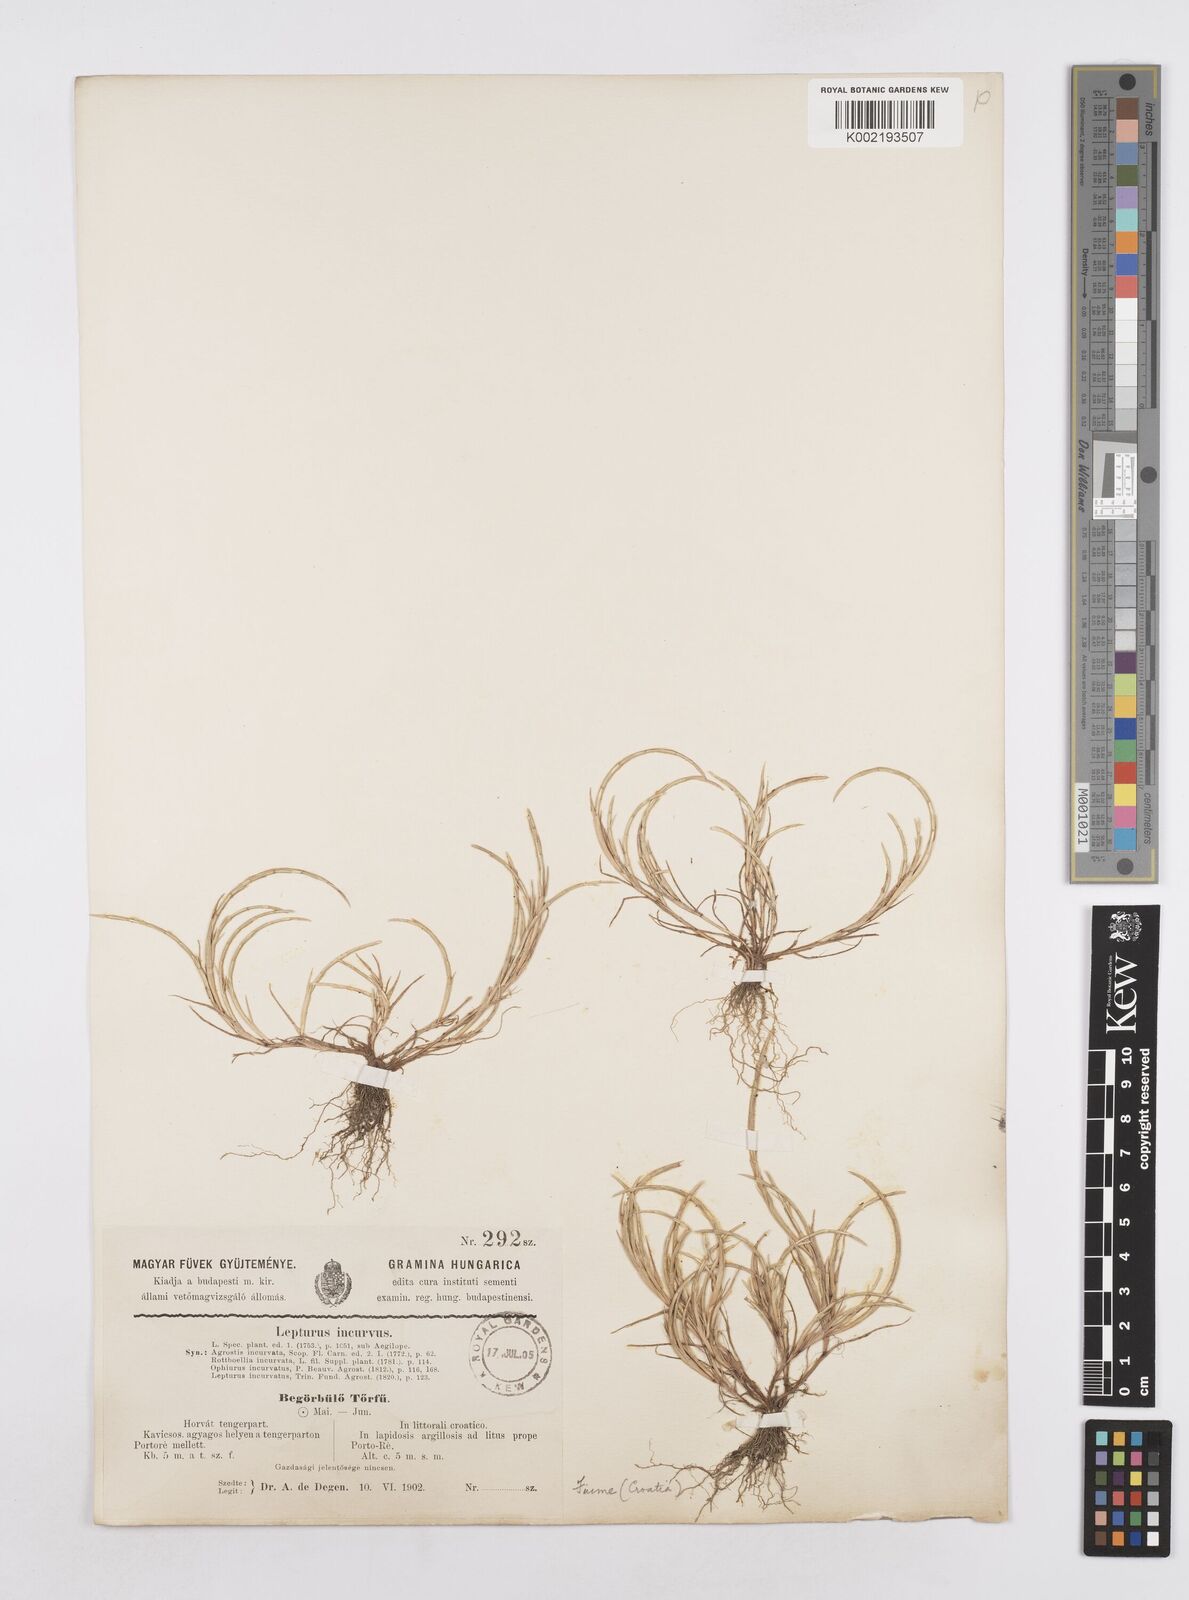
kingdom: Plantae
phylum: Tracheophyta
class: Liliopsida
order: Poales
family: Poaceae
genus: Parapholis
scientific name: Parapholis incurva
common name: Curved sicklegrass
